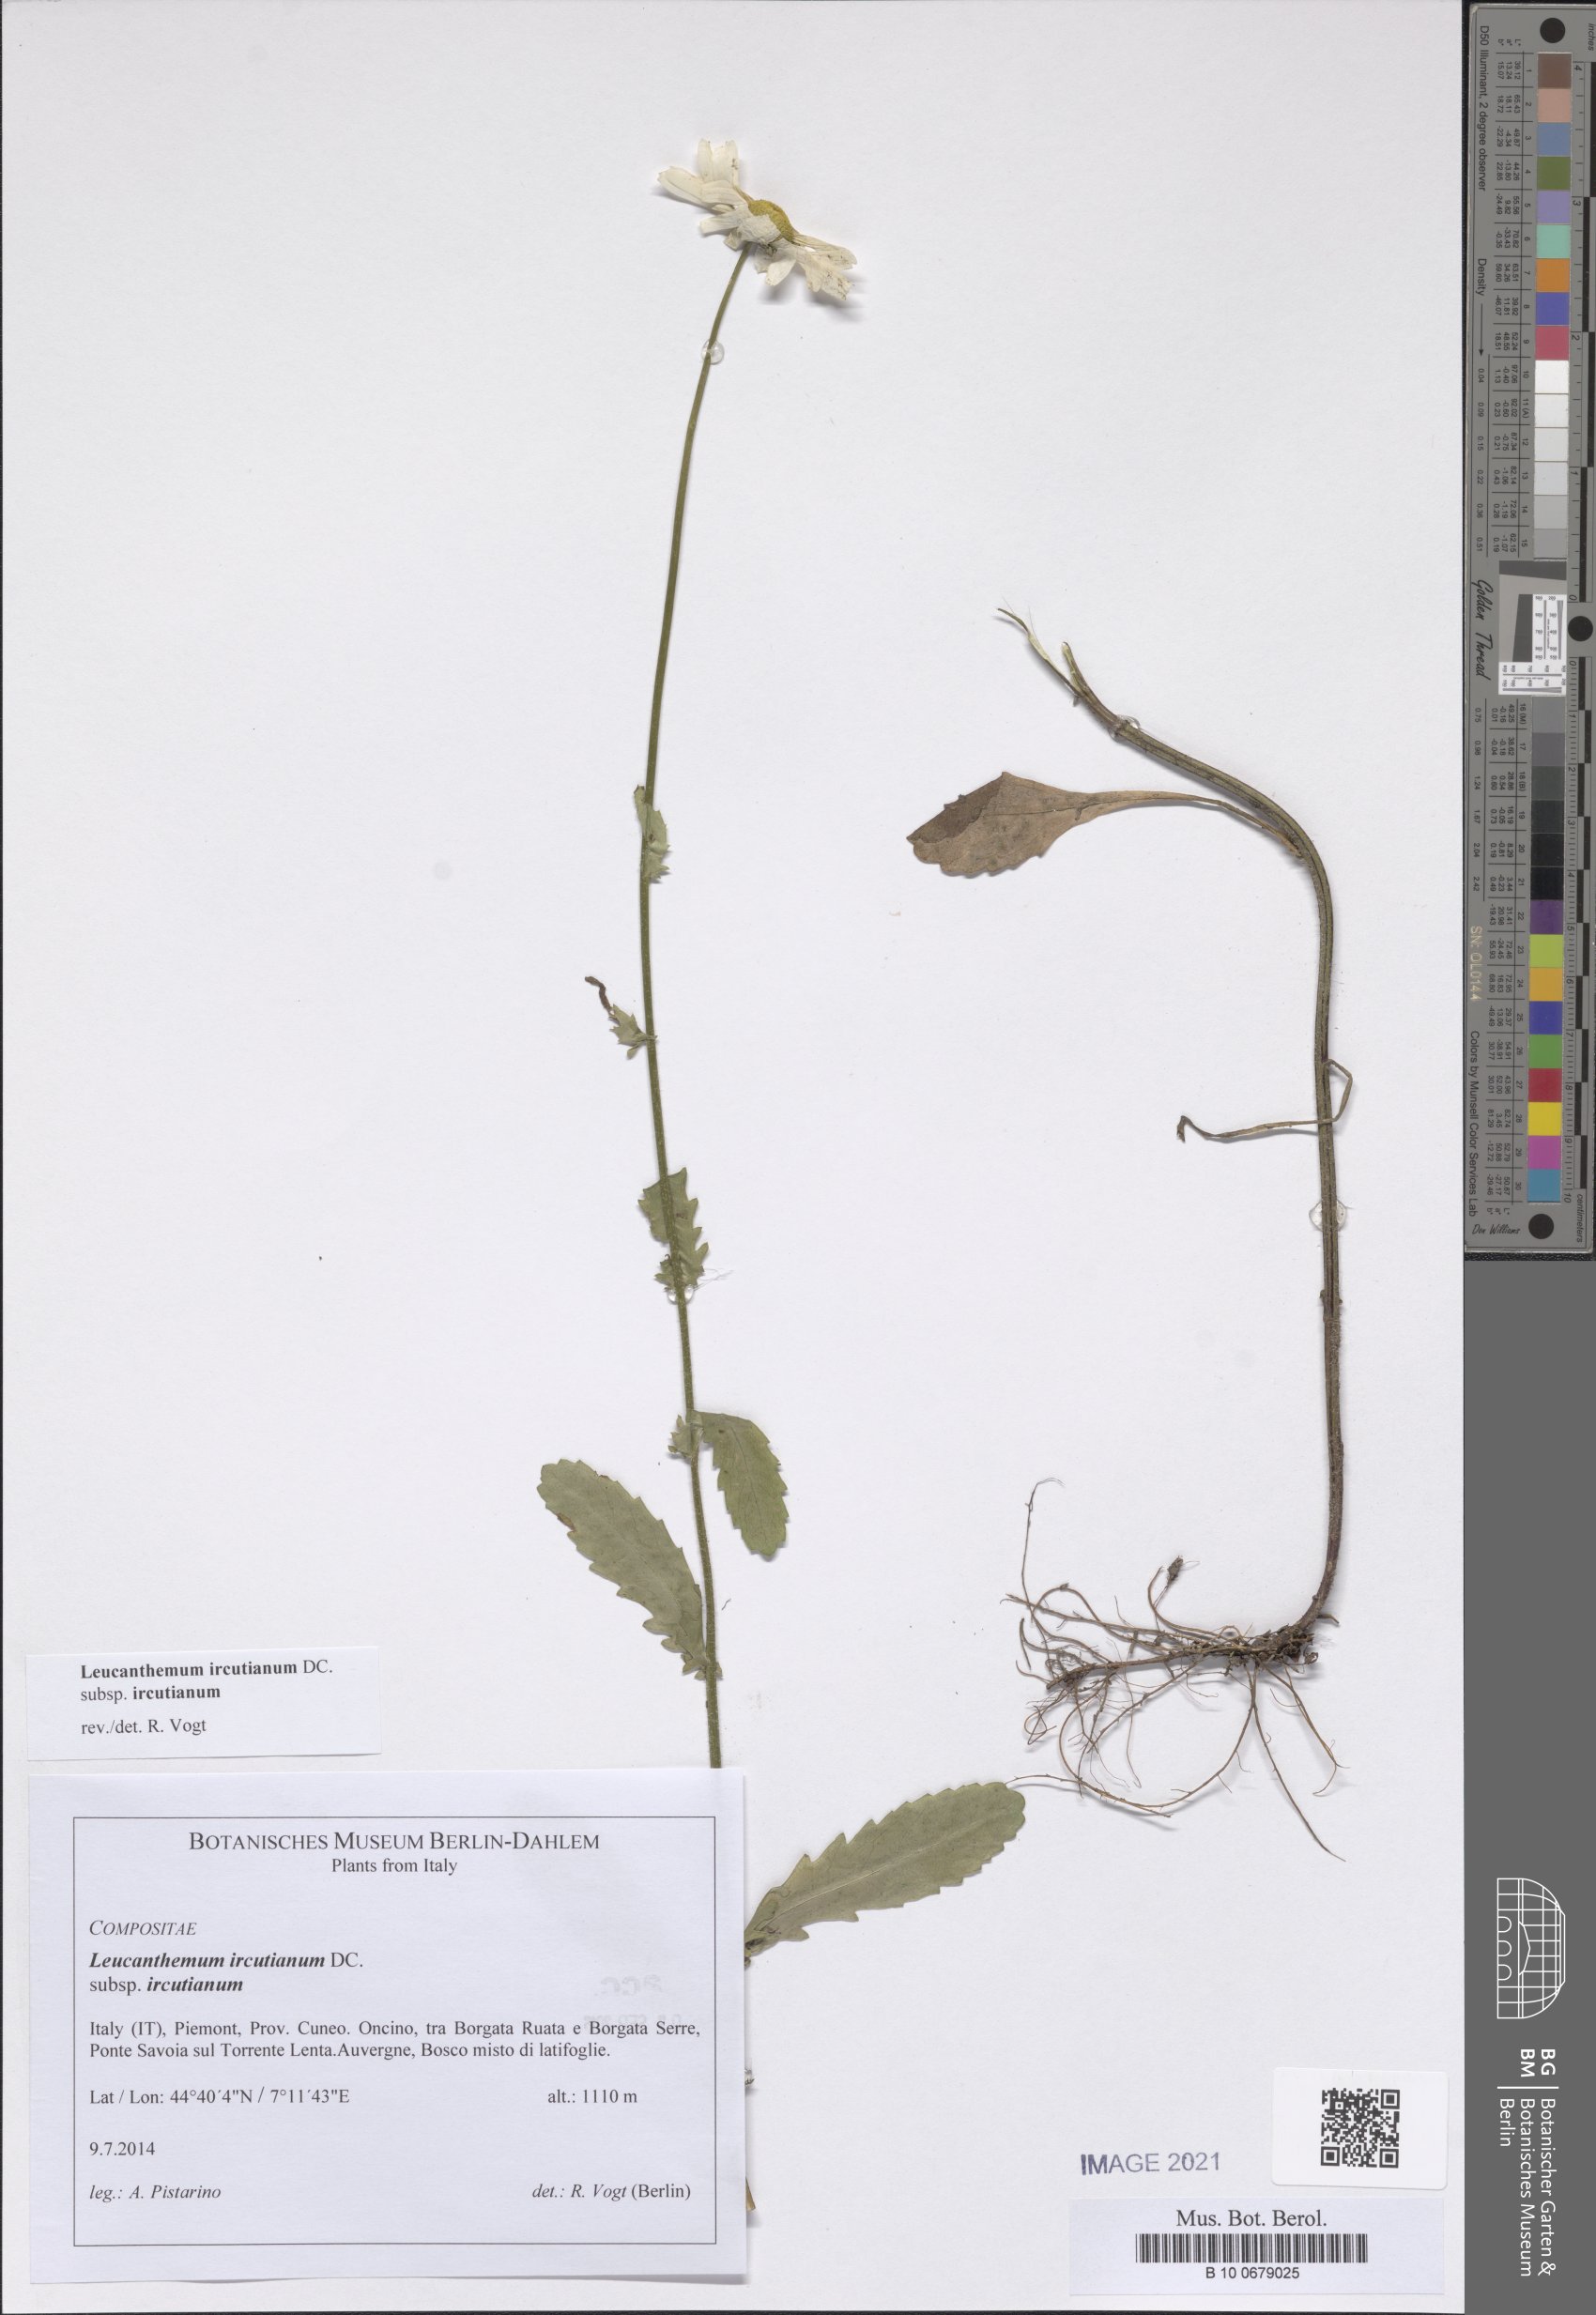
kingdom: Plantae
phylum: Tracheophyta
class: Magnoliopsida
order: Asterales
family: Asteraceae
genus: Leucanthemum
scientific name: Leucanthemum ircutianum
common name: Daisy
